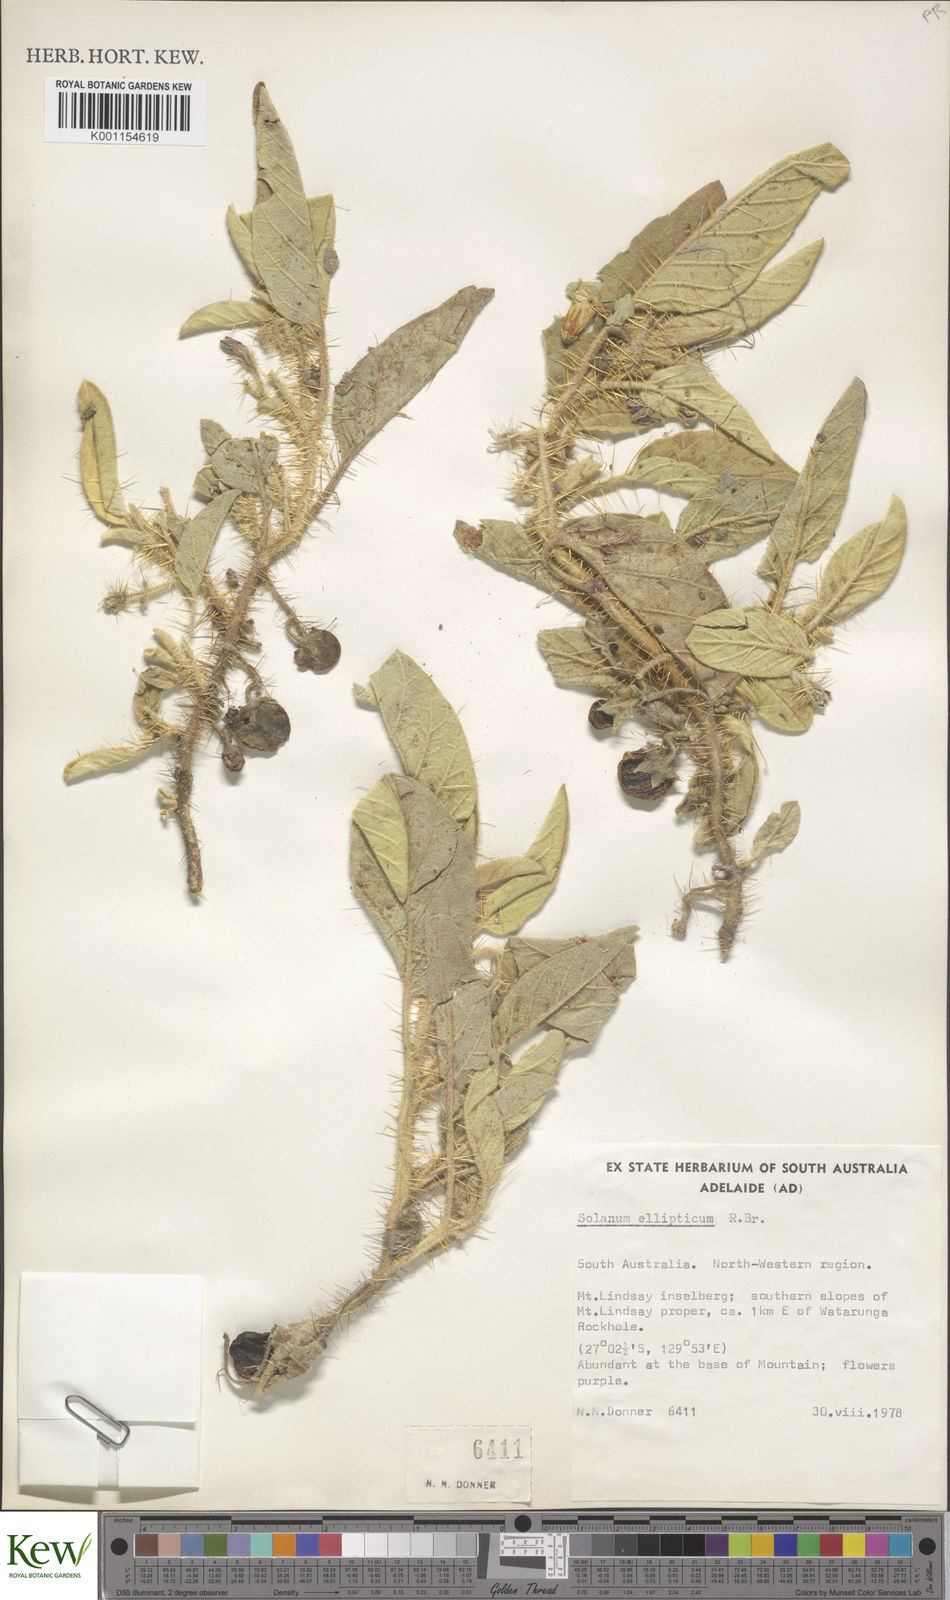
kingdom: Plantae
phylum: Tracheophyta
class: Magnoliopsida
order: Solanales
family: Solanaceae
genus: Solanum
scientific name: Solanum ellipticum
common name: Potato-bush
